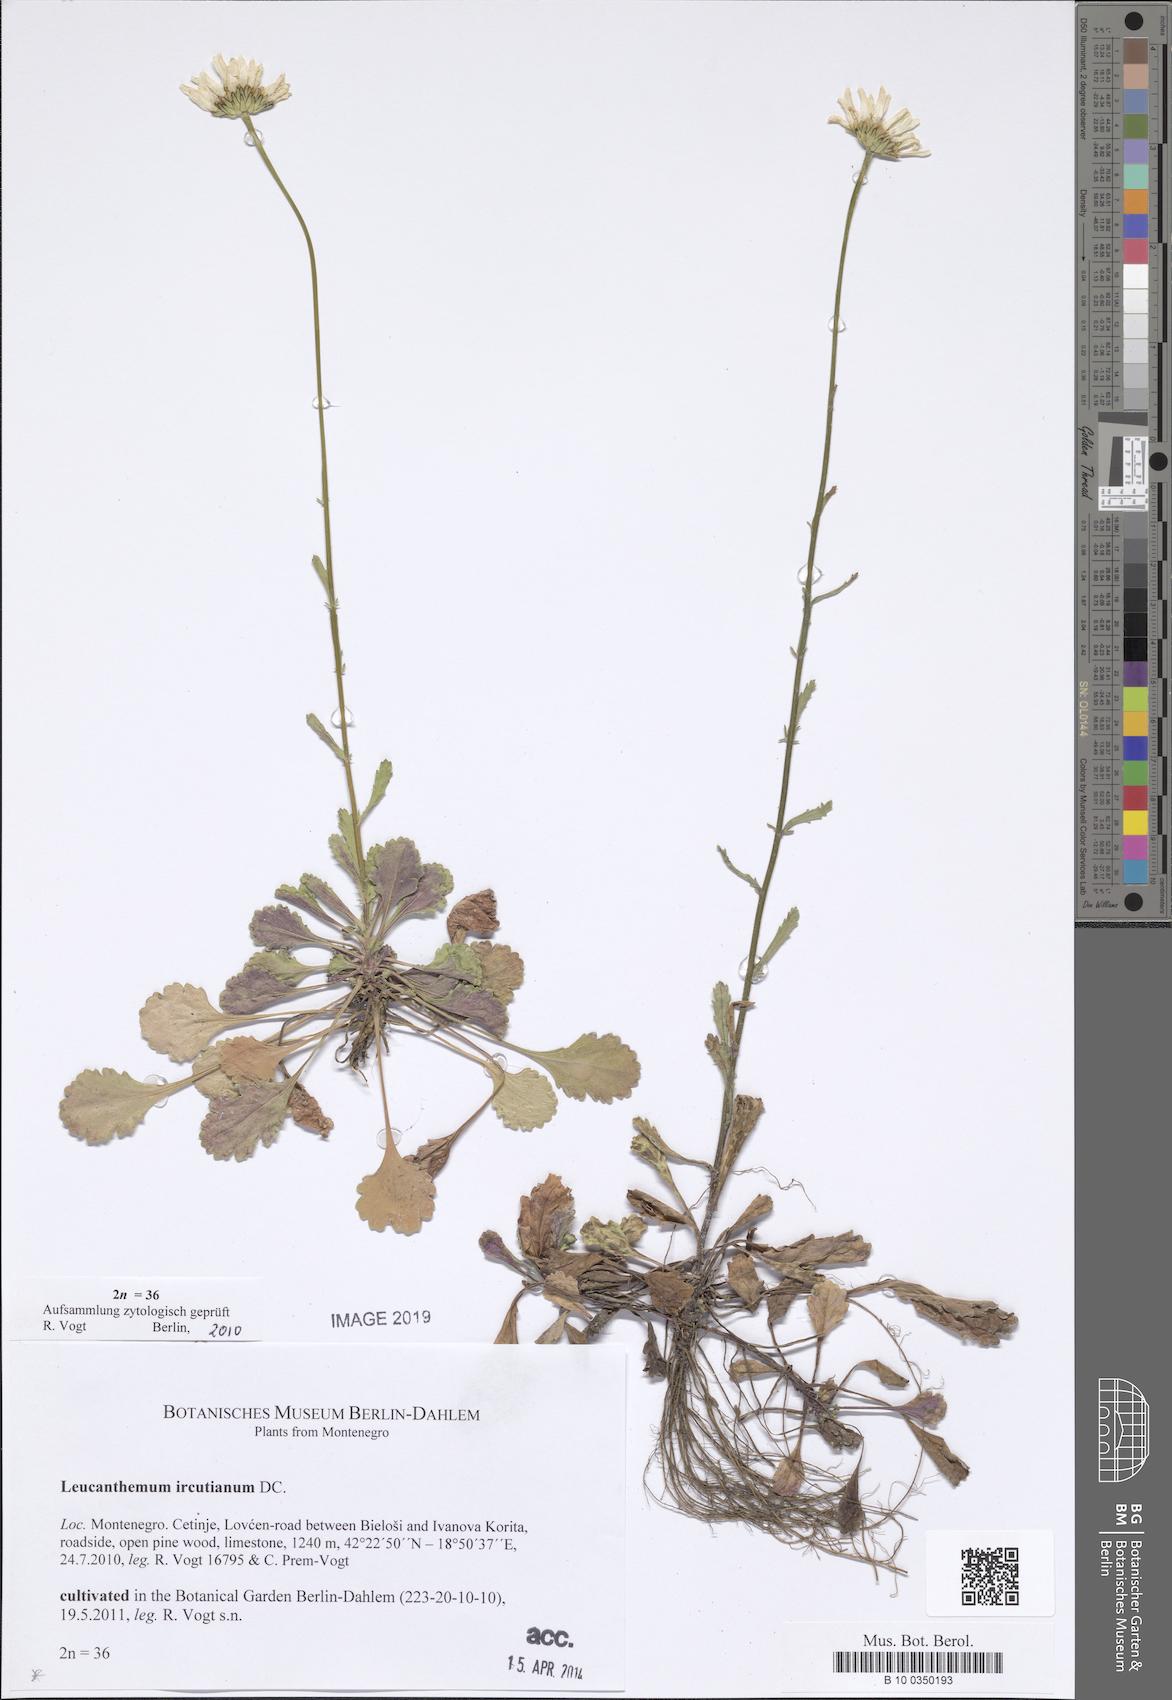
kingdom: Plantae
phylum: Tracheophyta
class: Magnoliopsida
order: Asterales
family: Asteraceae
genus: Leucanthemum
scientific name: Leucanthemum vulgare
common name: Oxeye daisy
